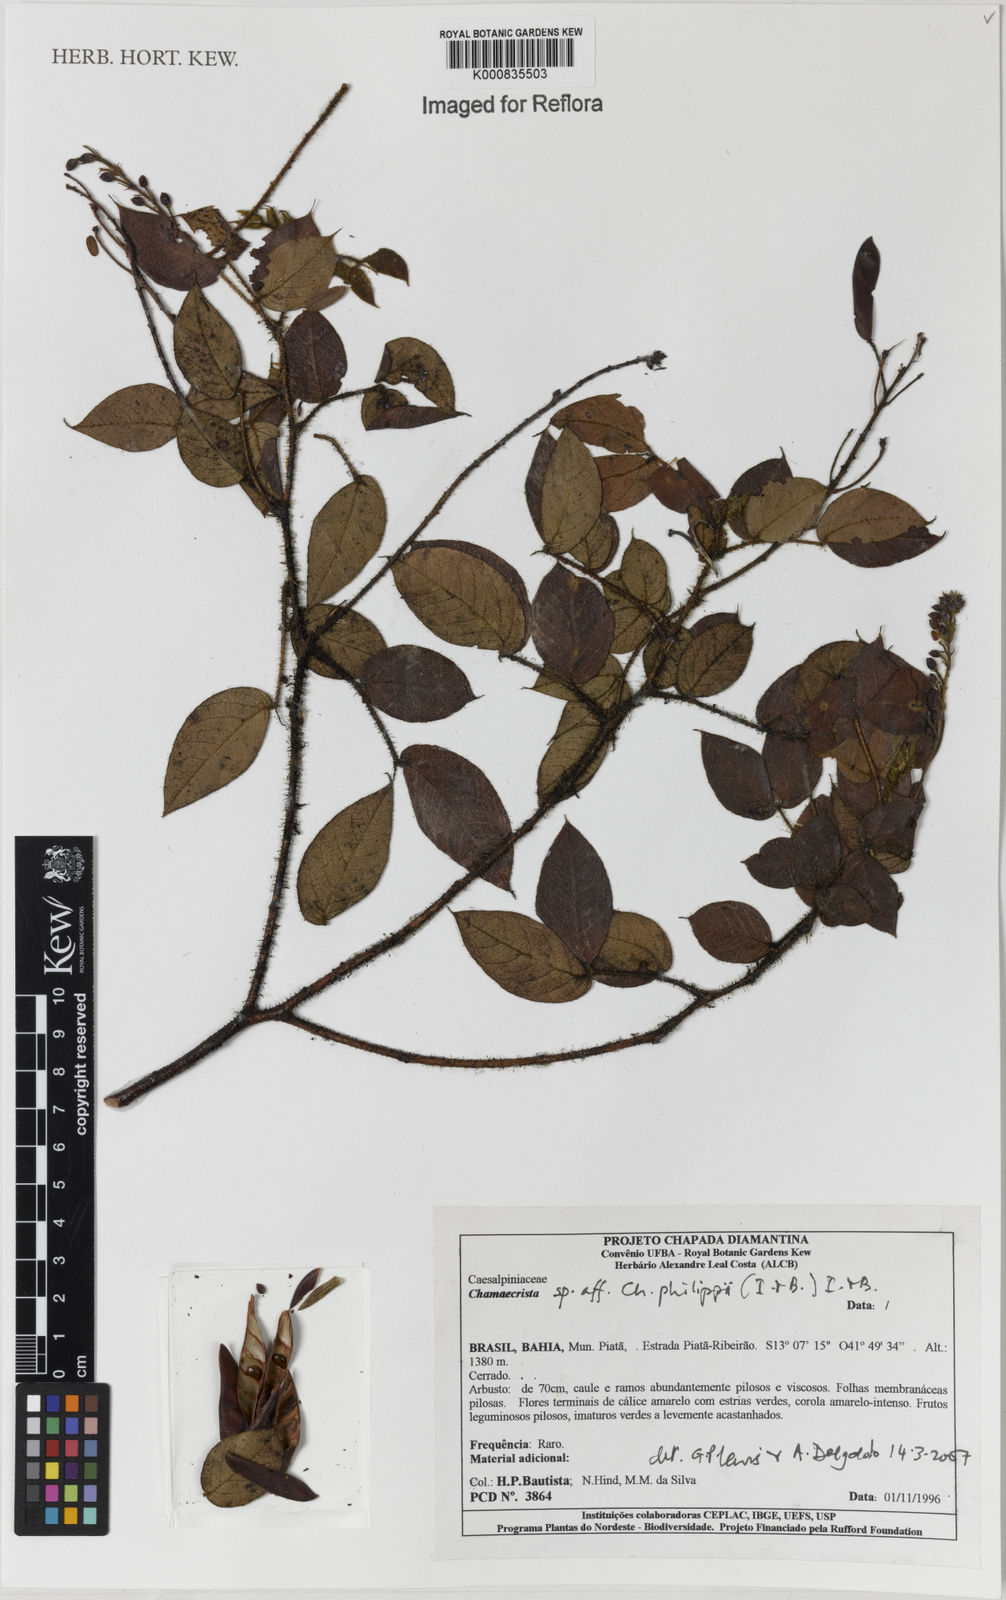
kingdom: Plantae
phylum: Tracheophyta
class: Magnoliopsida
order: Fabales
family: Fabaceae
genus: Chamaecrista
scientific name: Chamaecrista philippii
